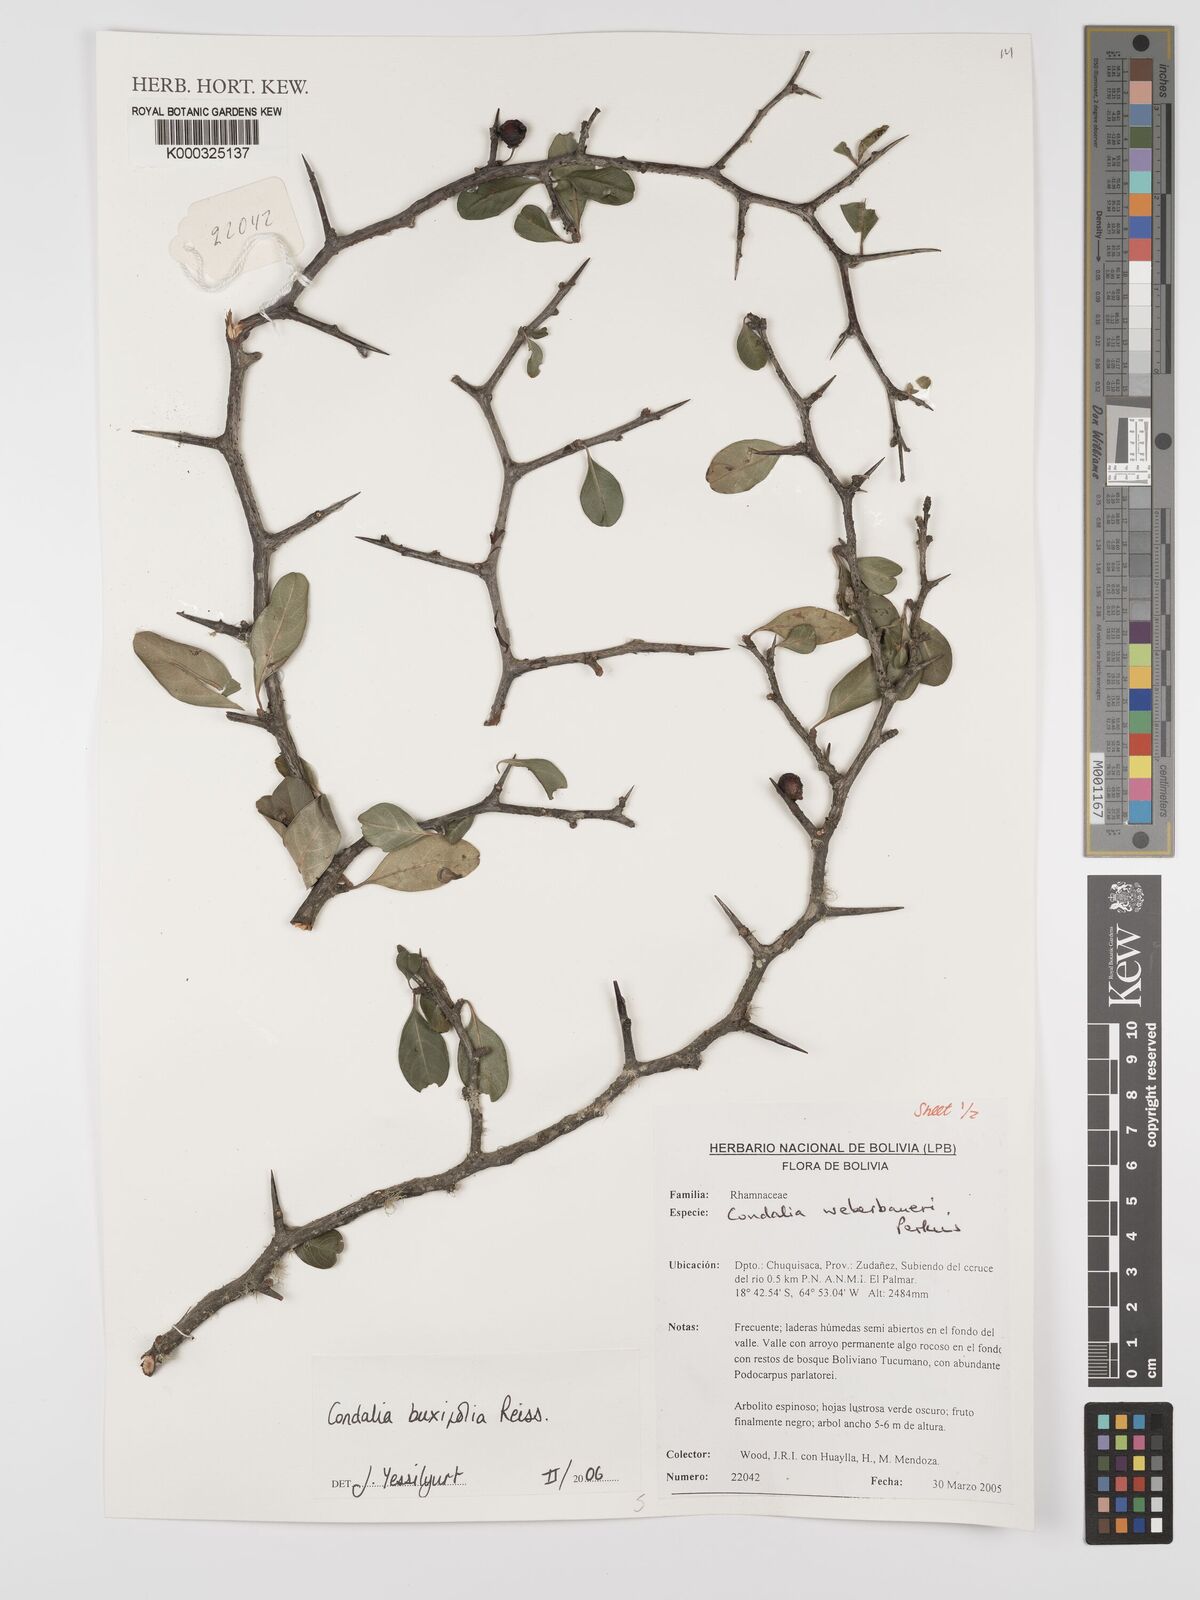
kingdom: Plantae
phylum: Tracheophyta
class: Magnoliopsida
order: Rosales
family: Rhamnaceae
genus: Condalia
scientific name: Condalia buxifolia
